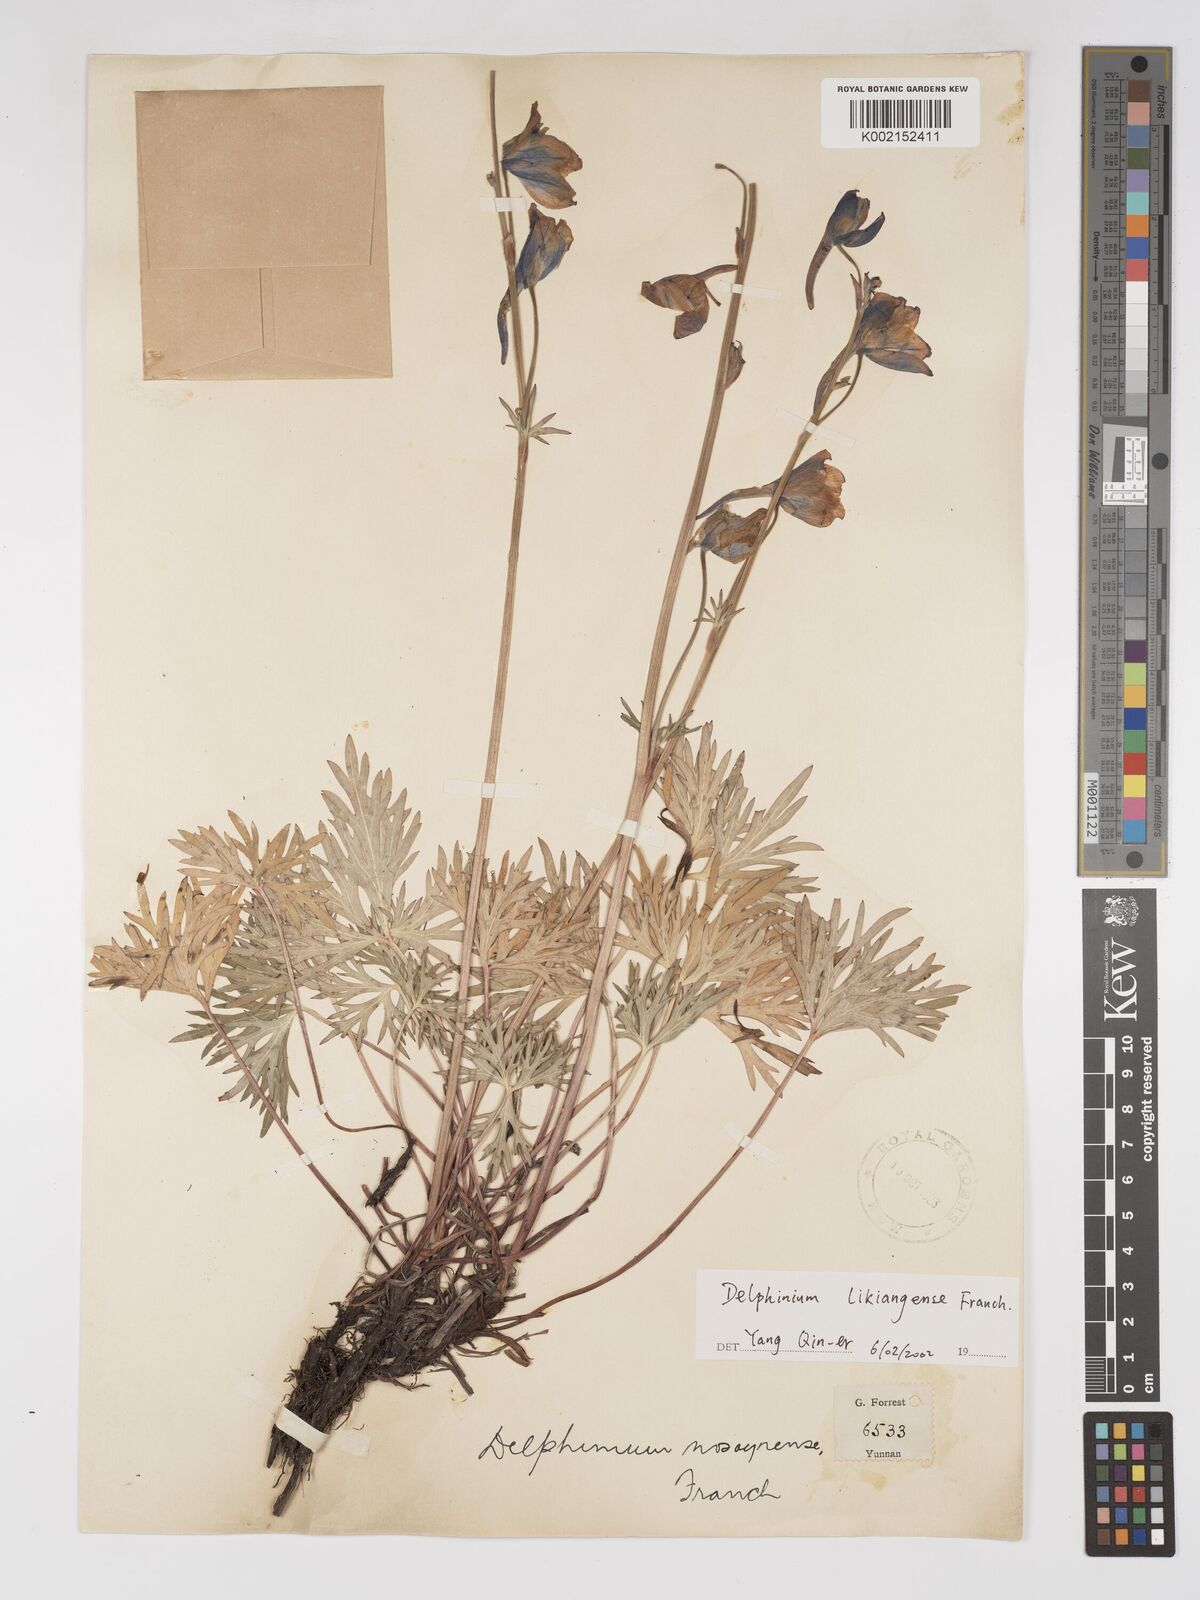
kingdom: Plantae
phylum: Tracheophyta
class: Magnoliopsida
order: Ranunculales
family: Ranunculaceae
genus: Delphinium
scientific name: Delphinium likiangense
